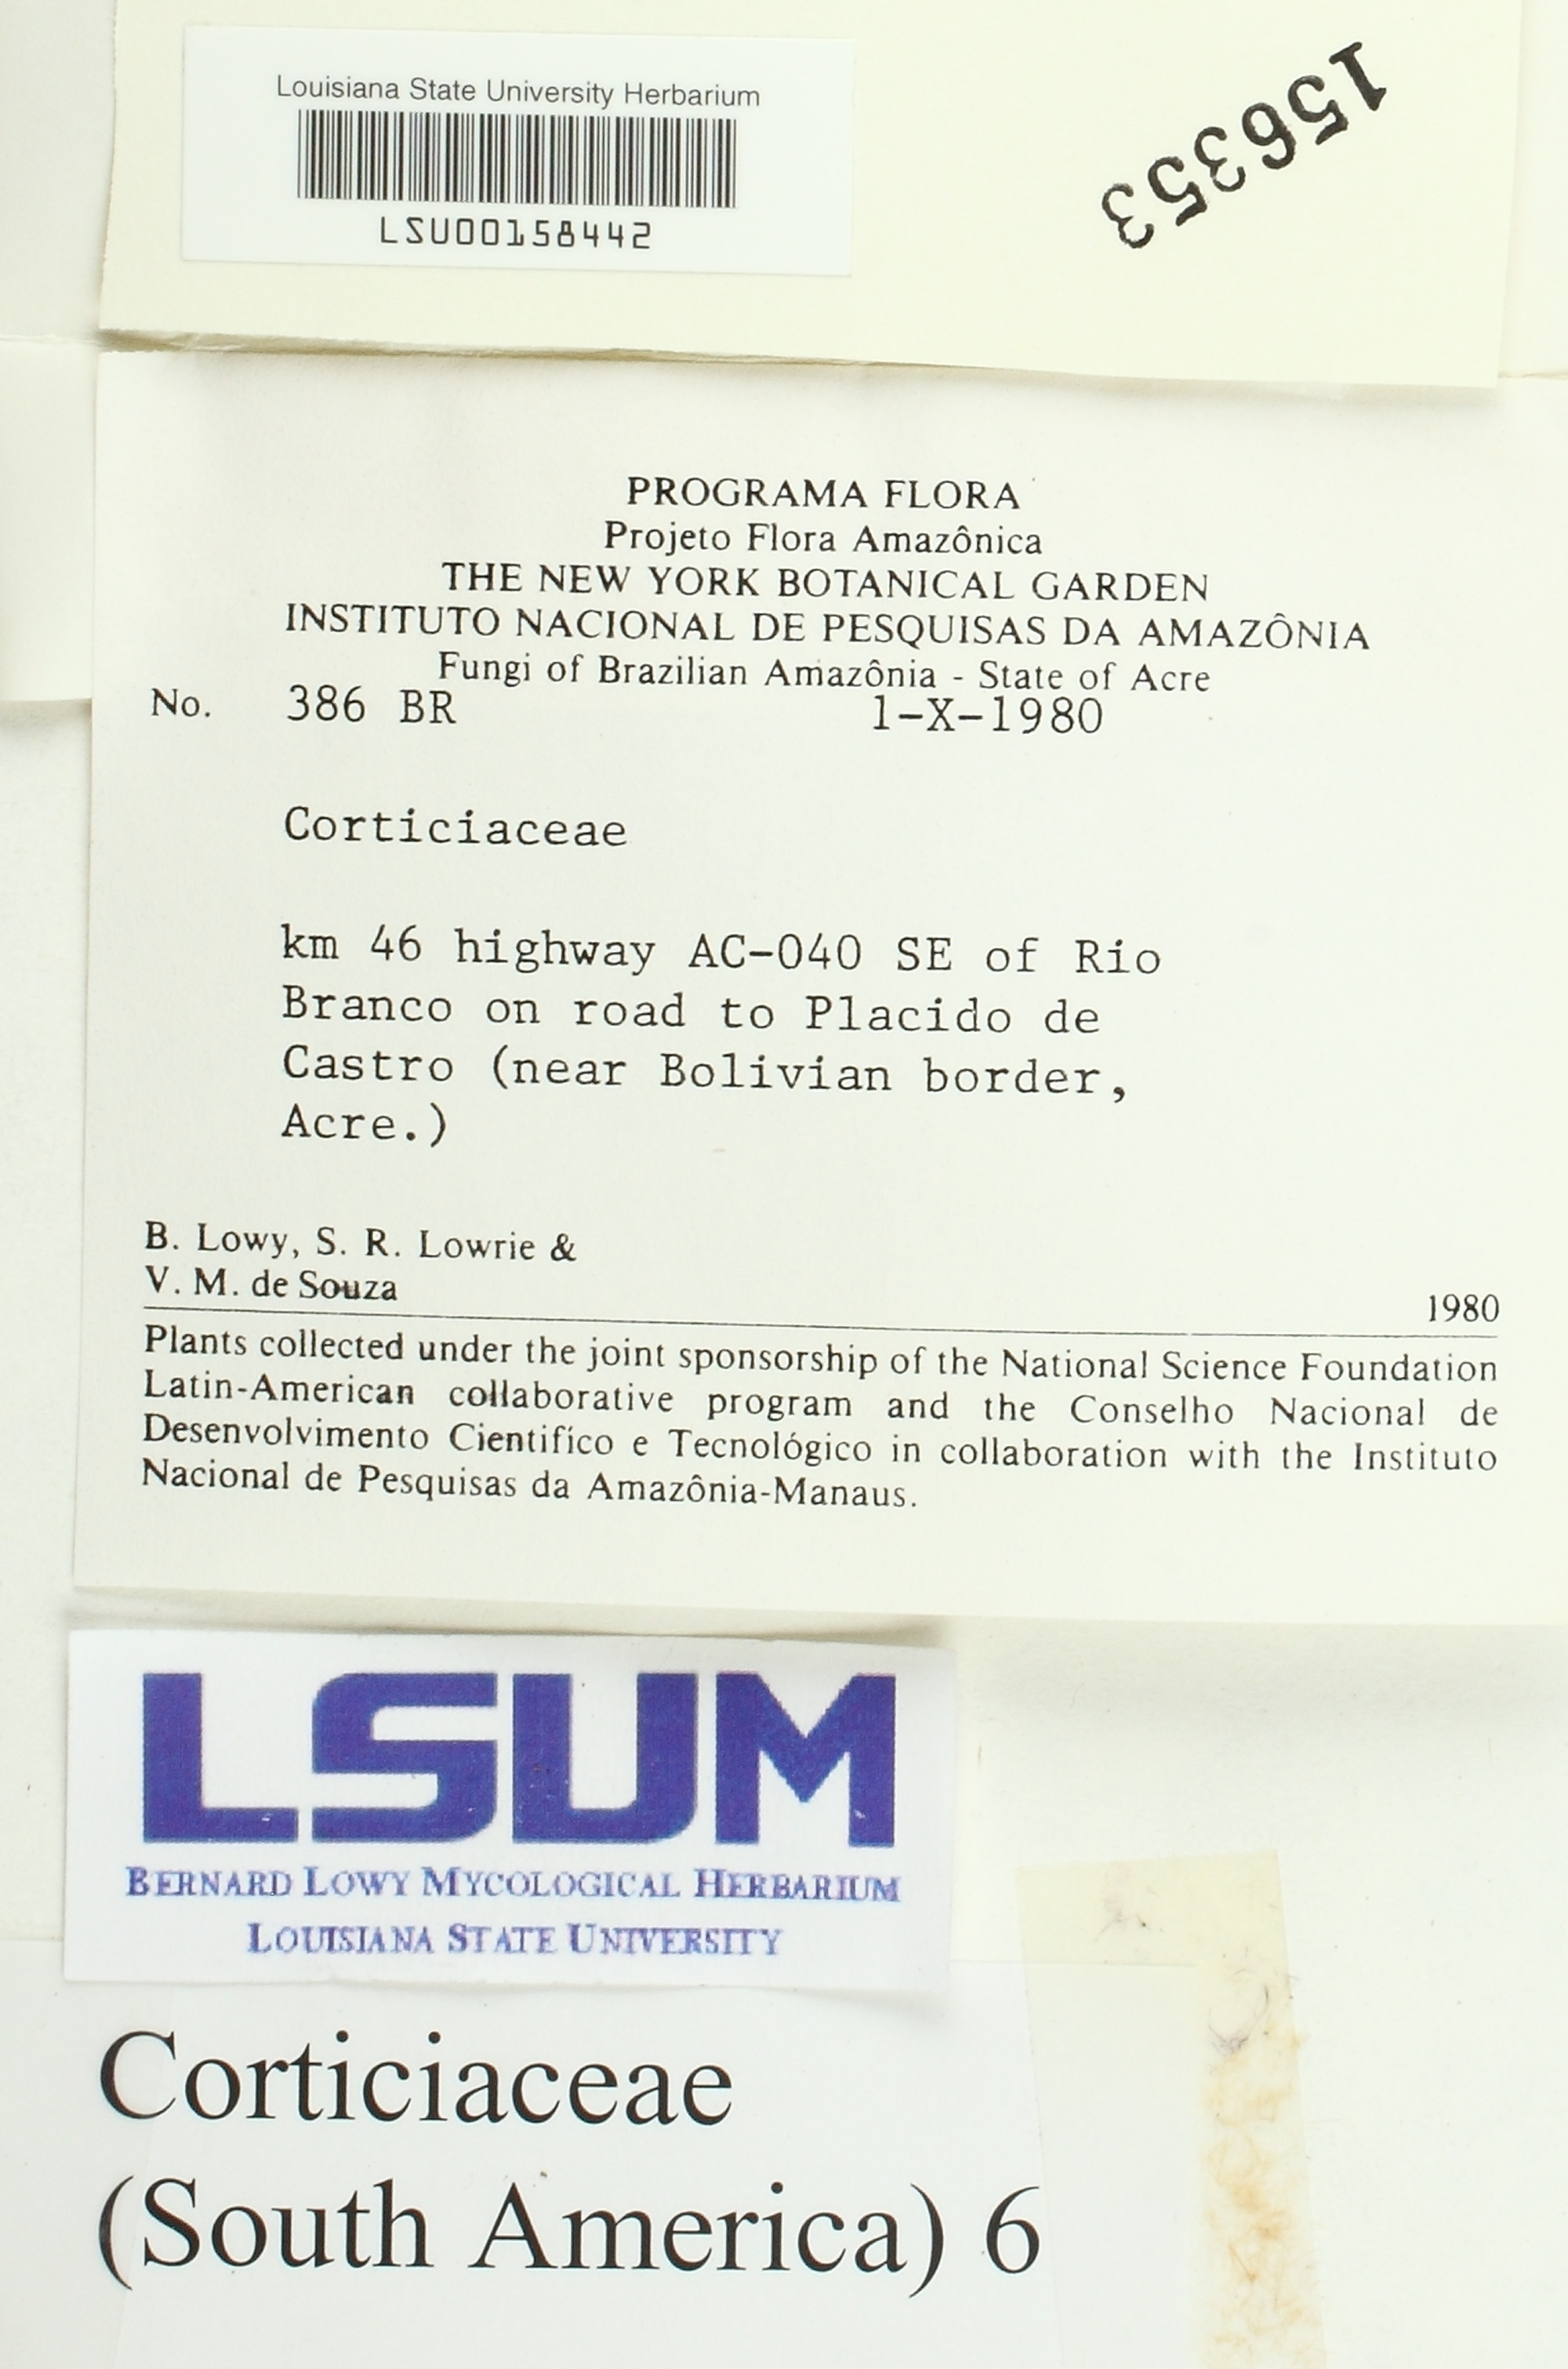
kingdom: Fungi
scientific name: Fungi
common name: Fungi
